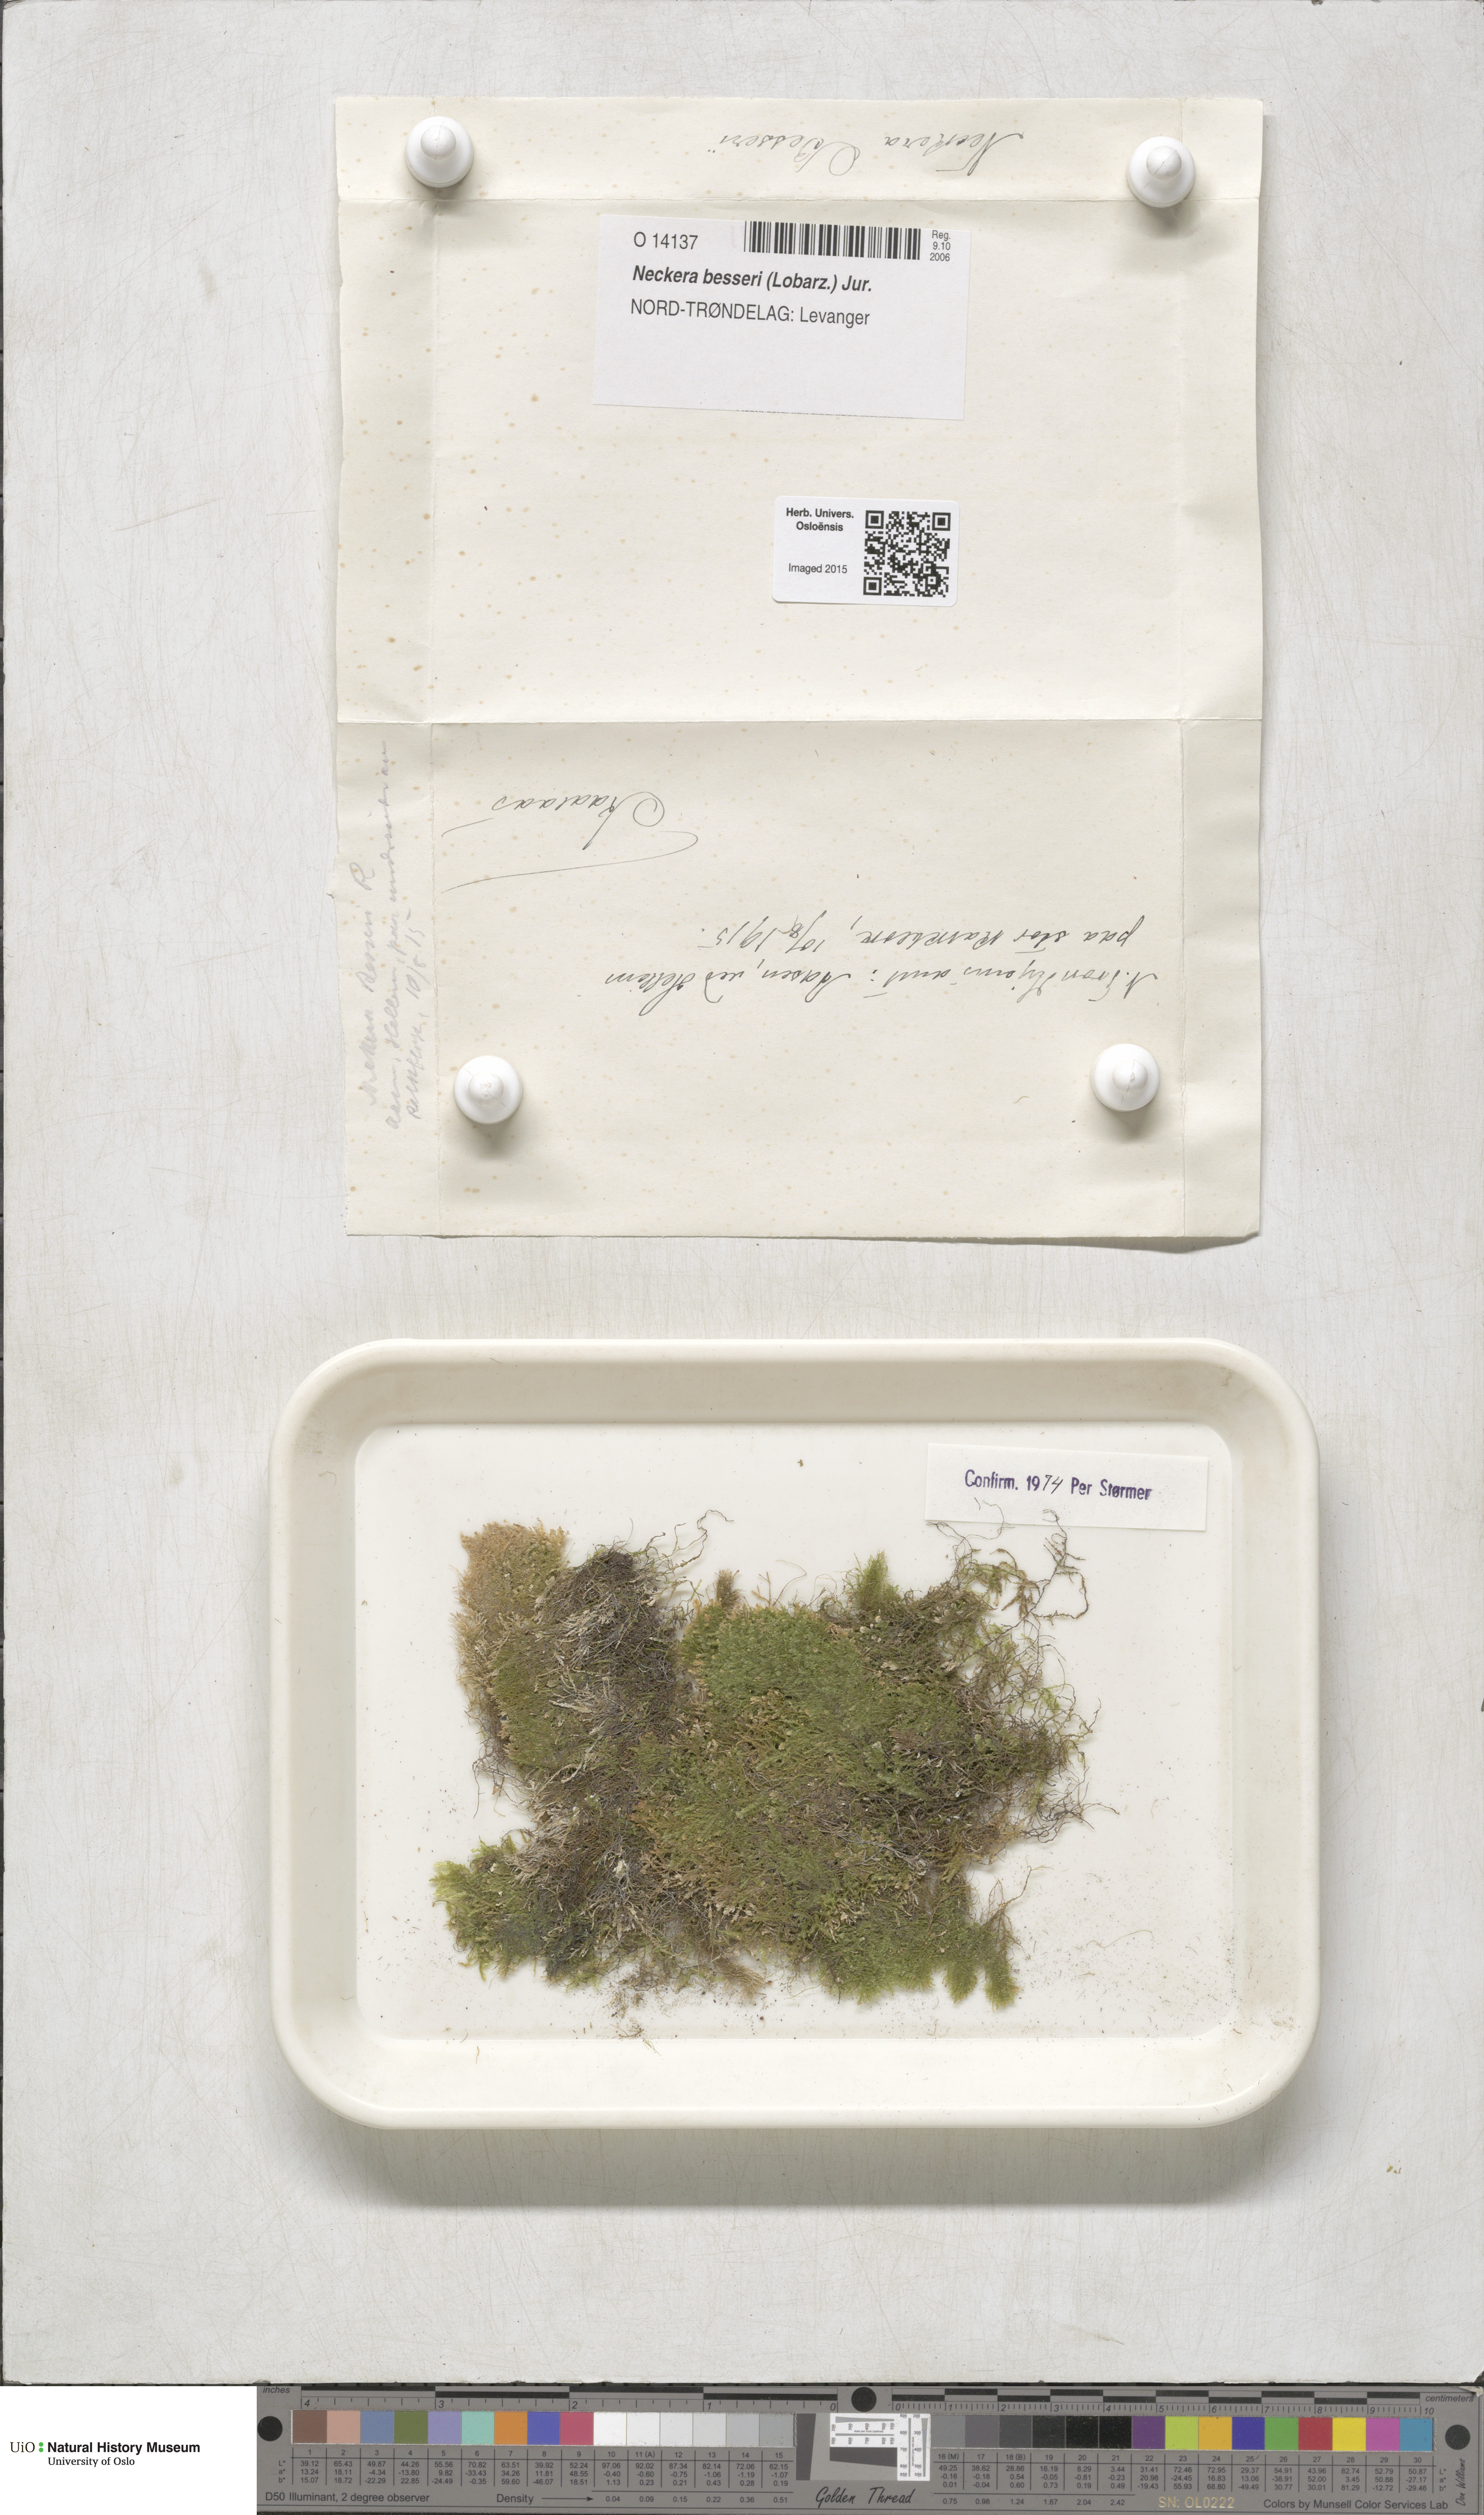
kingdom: Plantae
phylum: Bryophyta
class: Bryopsida
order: Hypnales
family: Neckeraceae
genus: Alleniella
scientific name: Alleniella besseri
